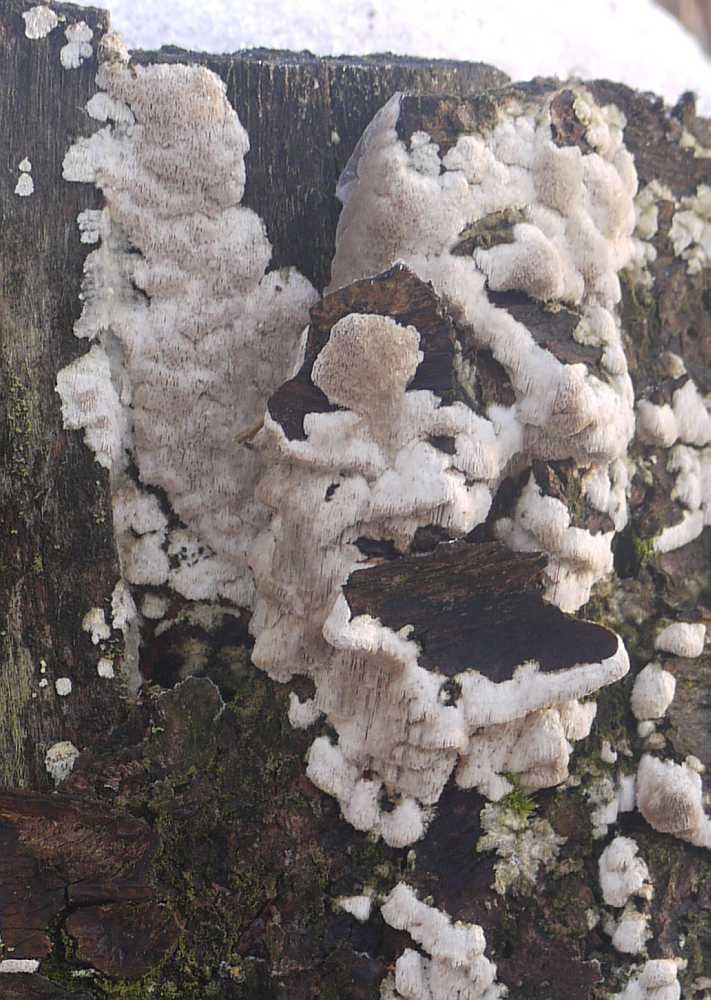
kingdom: Fungi
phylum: Basidiomycota
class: Agaricomycetes
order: Polyporales
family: Gelatoporiaceae
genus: Cinereomyces
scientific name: Cinereomyces lindbladii
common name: almindelig gråporesvamp
